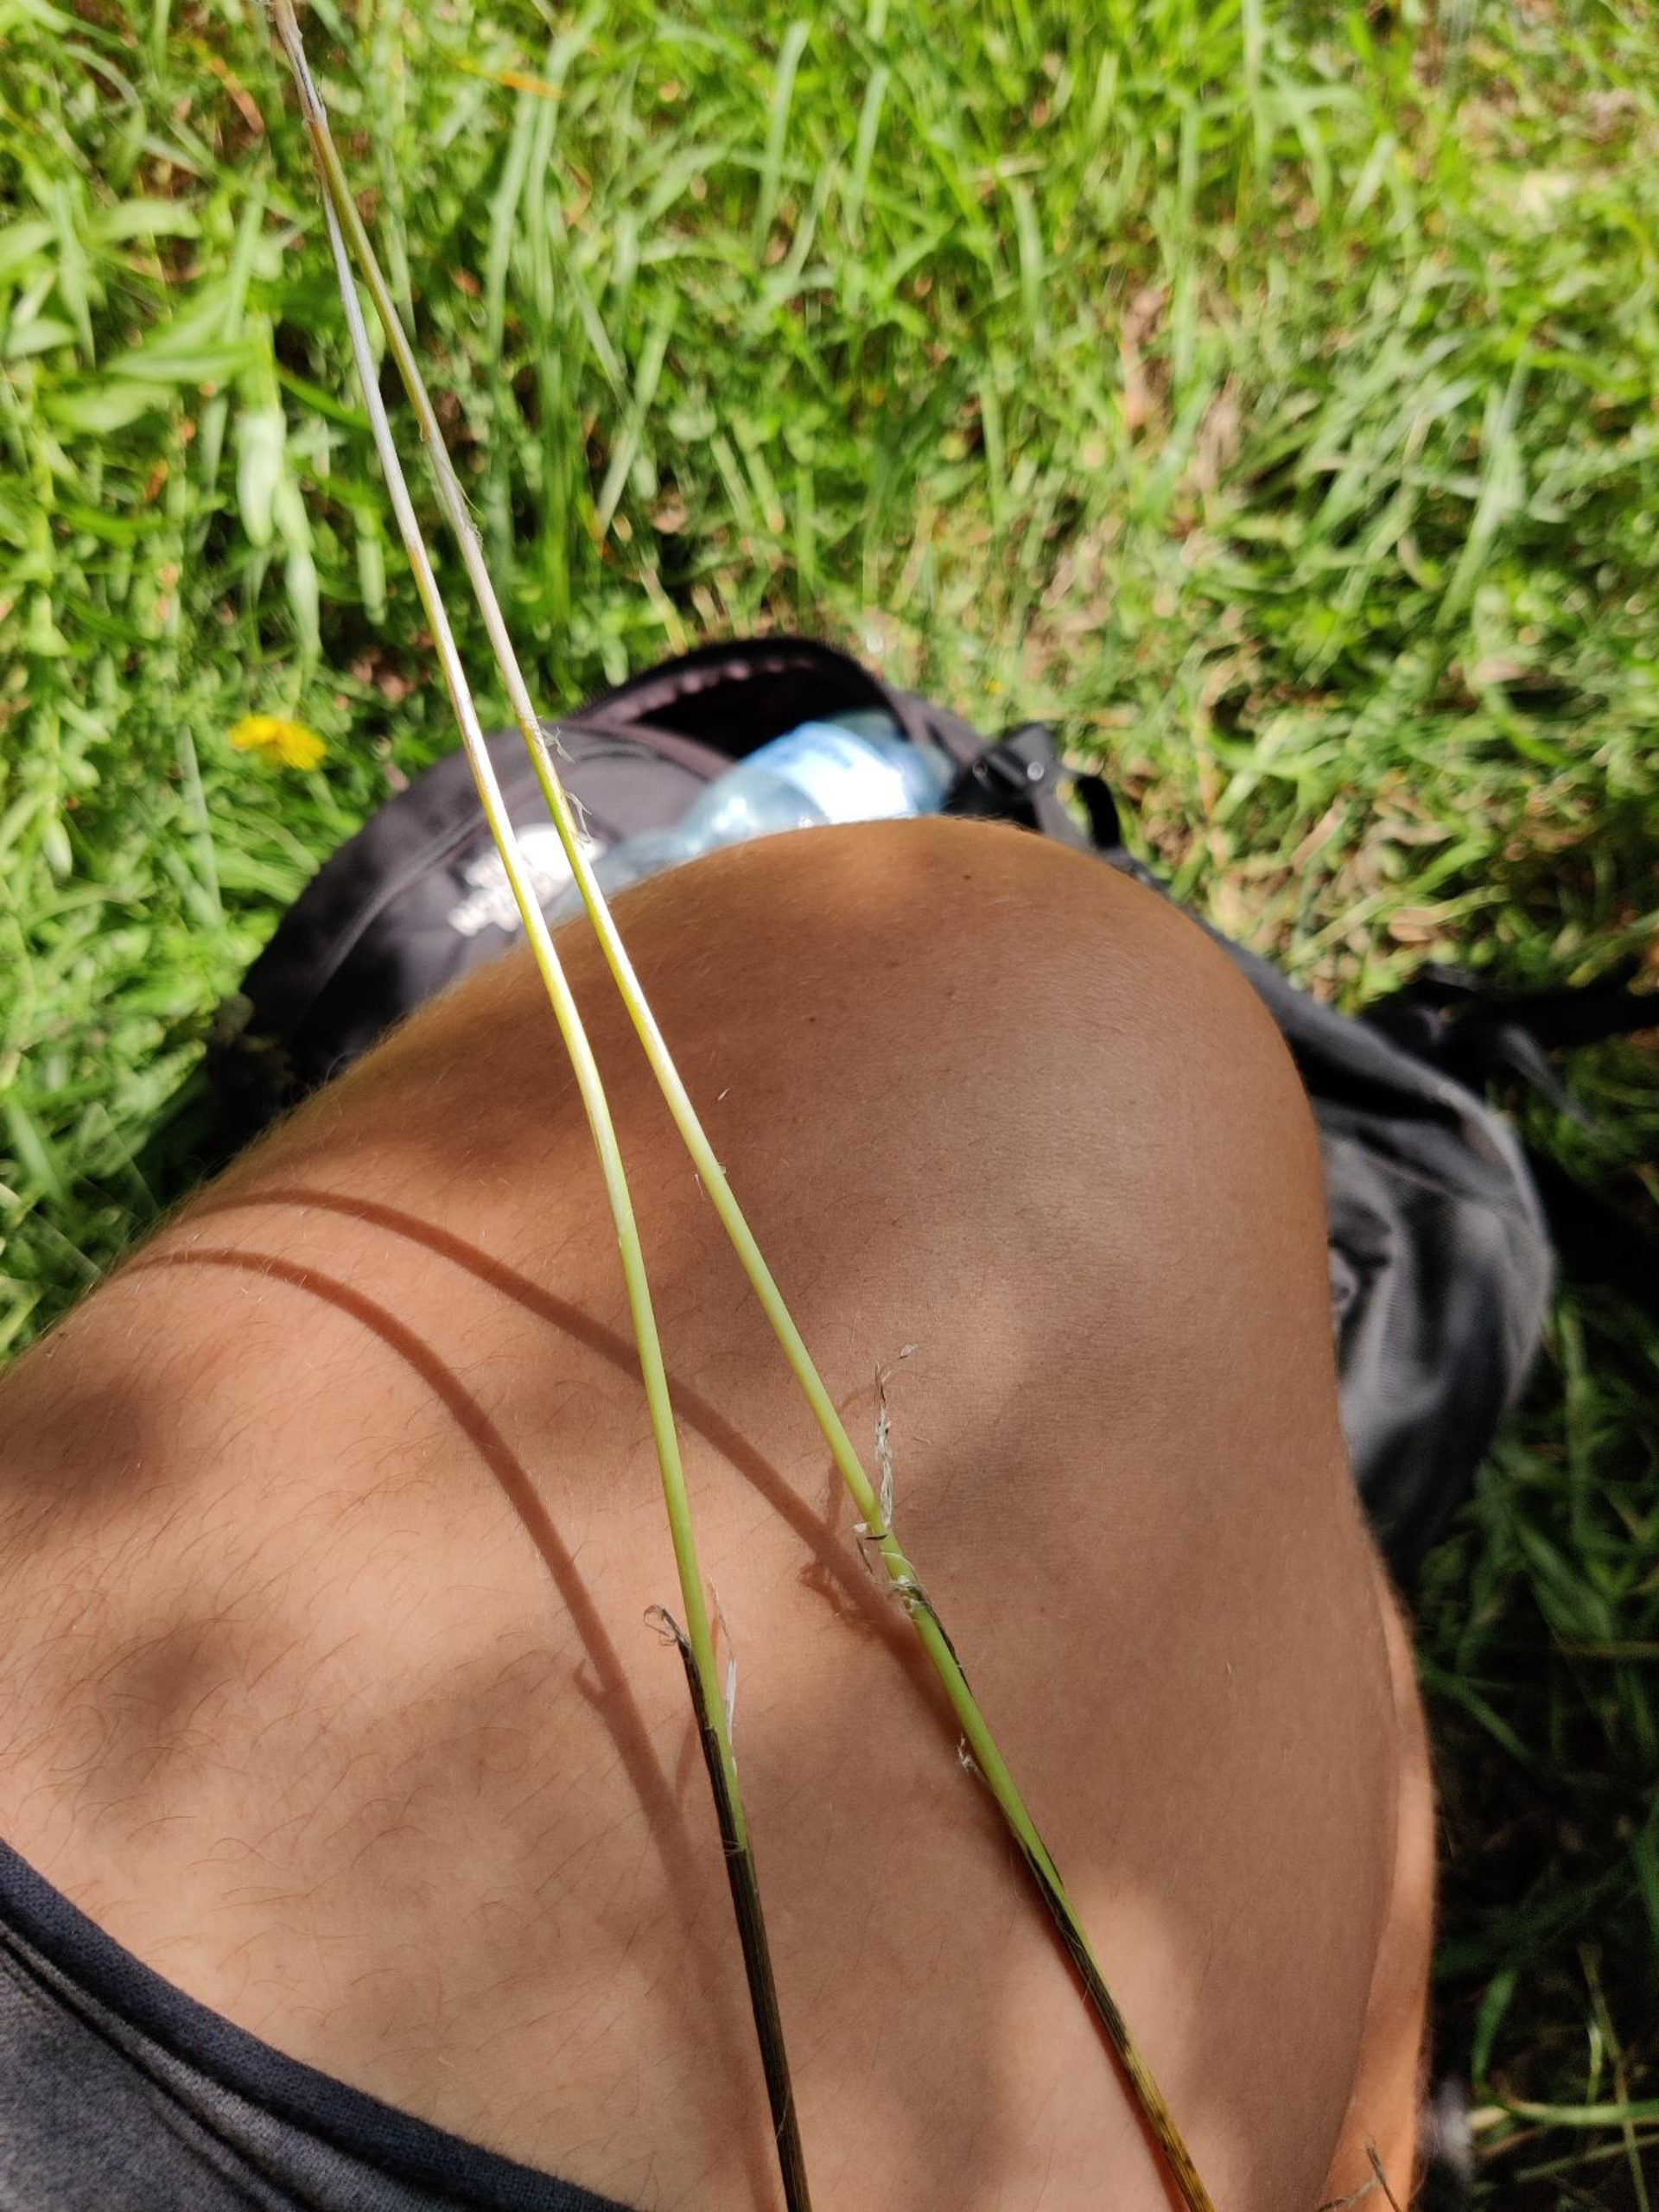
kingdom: Plantae
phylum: Tracheophyta
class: Liliopsida
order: Asparagales
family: Amaryllidaceae
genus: Allium
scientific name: Allium
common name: Løgslægten
